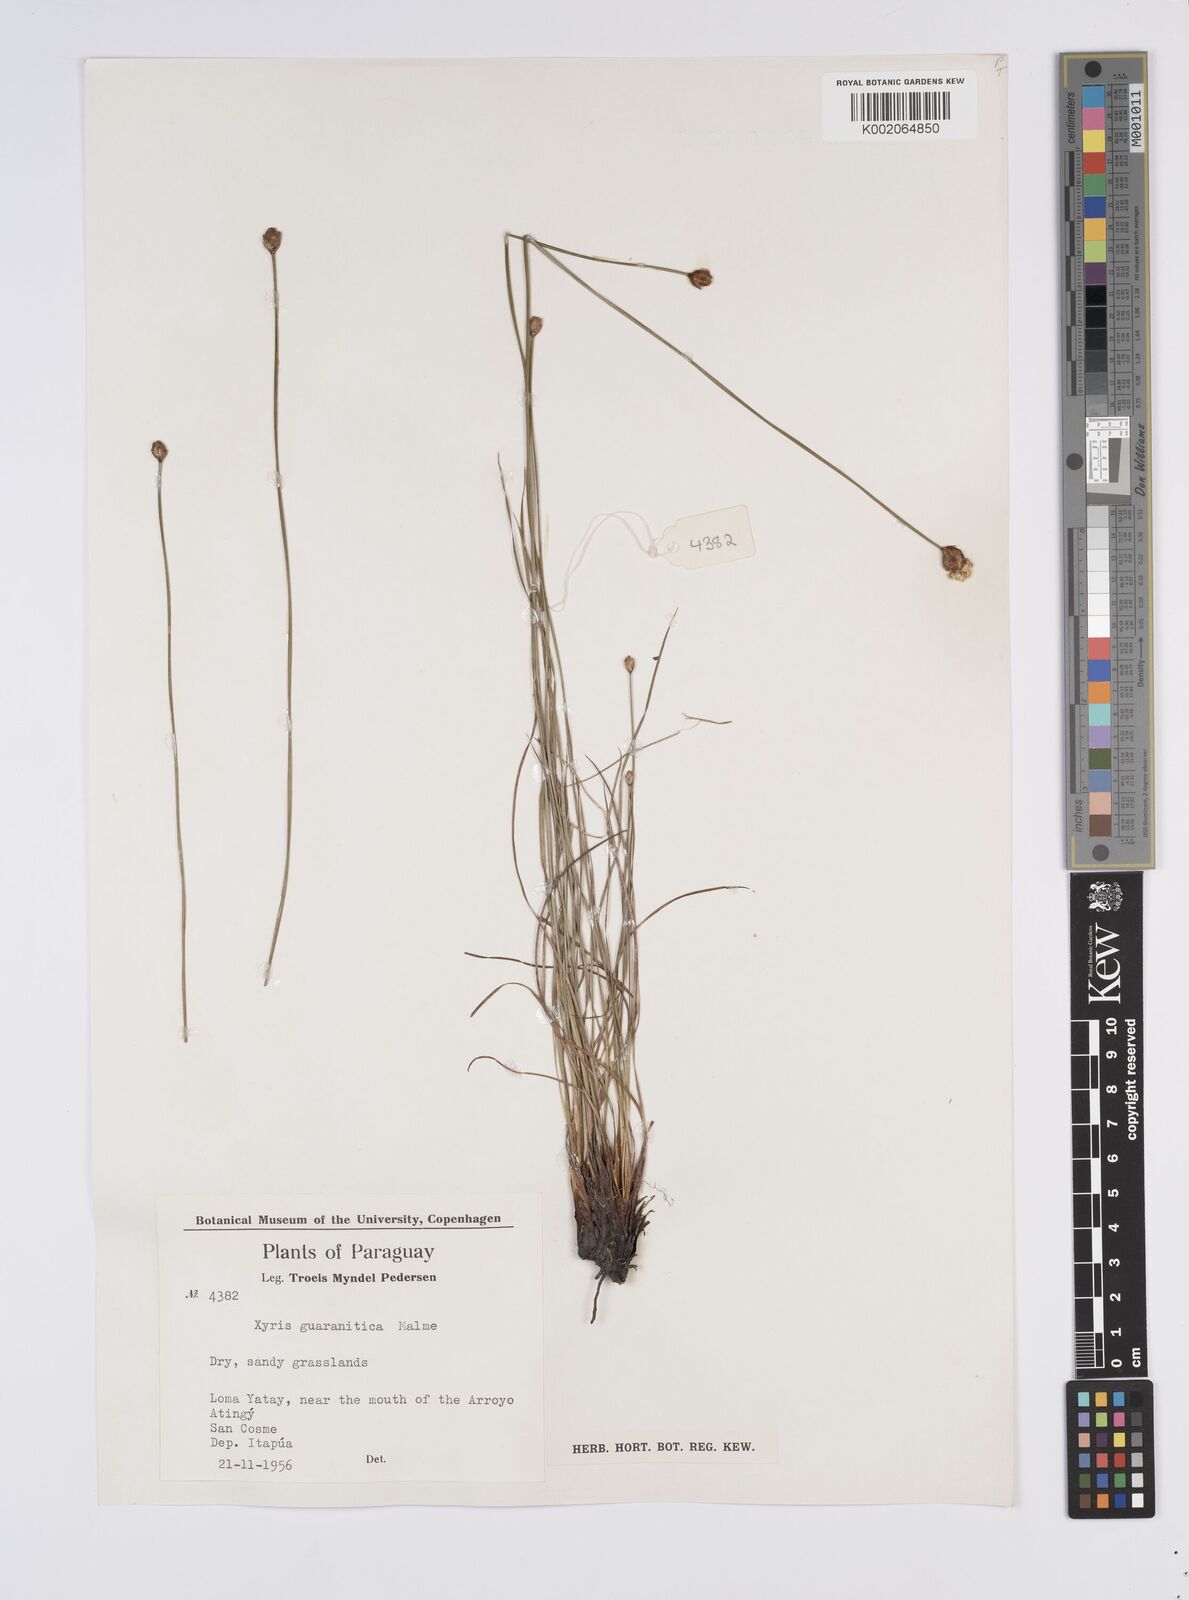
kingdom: Plantae
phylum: Tracheophyta
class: Liliopsida
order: Poales
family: Xyridaceae
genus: Xyris
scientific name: Xyris guaranitica
